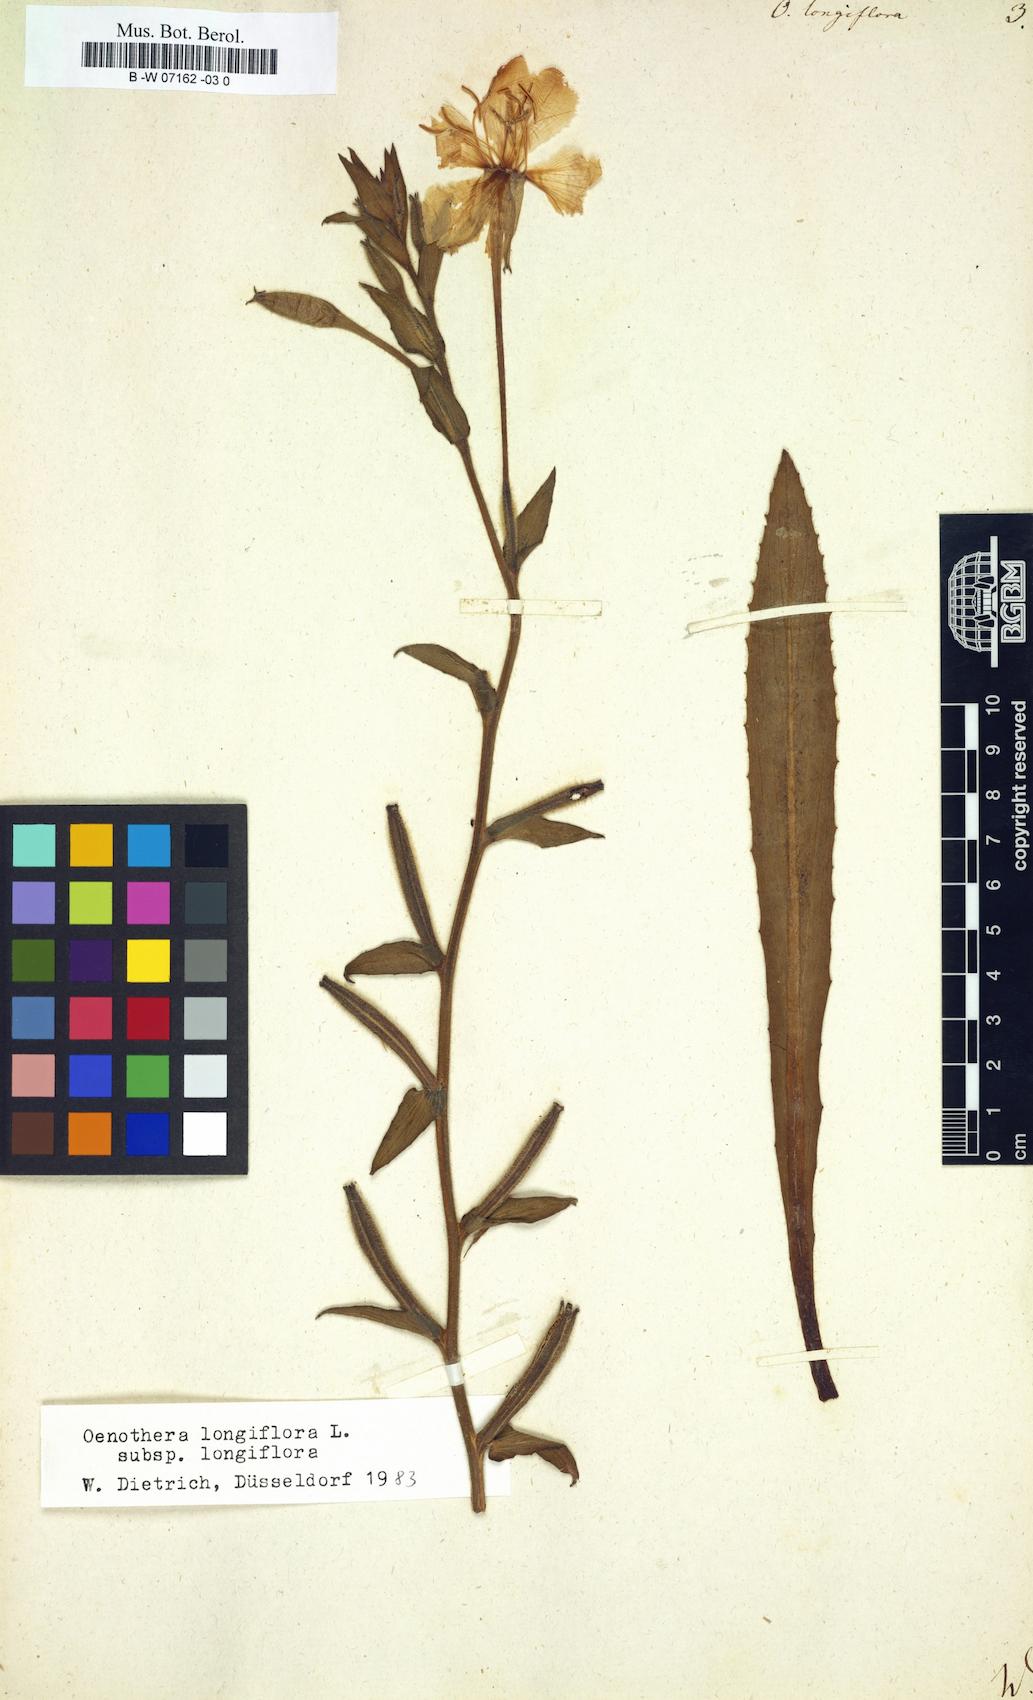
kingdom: Plantae
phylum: Tracheophyta
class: Magnoliopsida
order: Myrtales
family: Onagraceae
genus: Oenothera
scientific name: Oenothera longiflora
